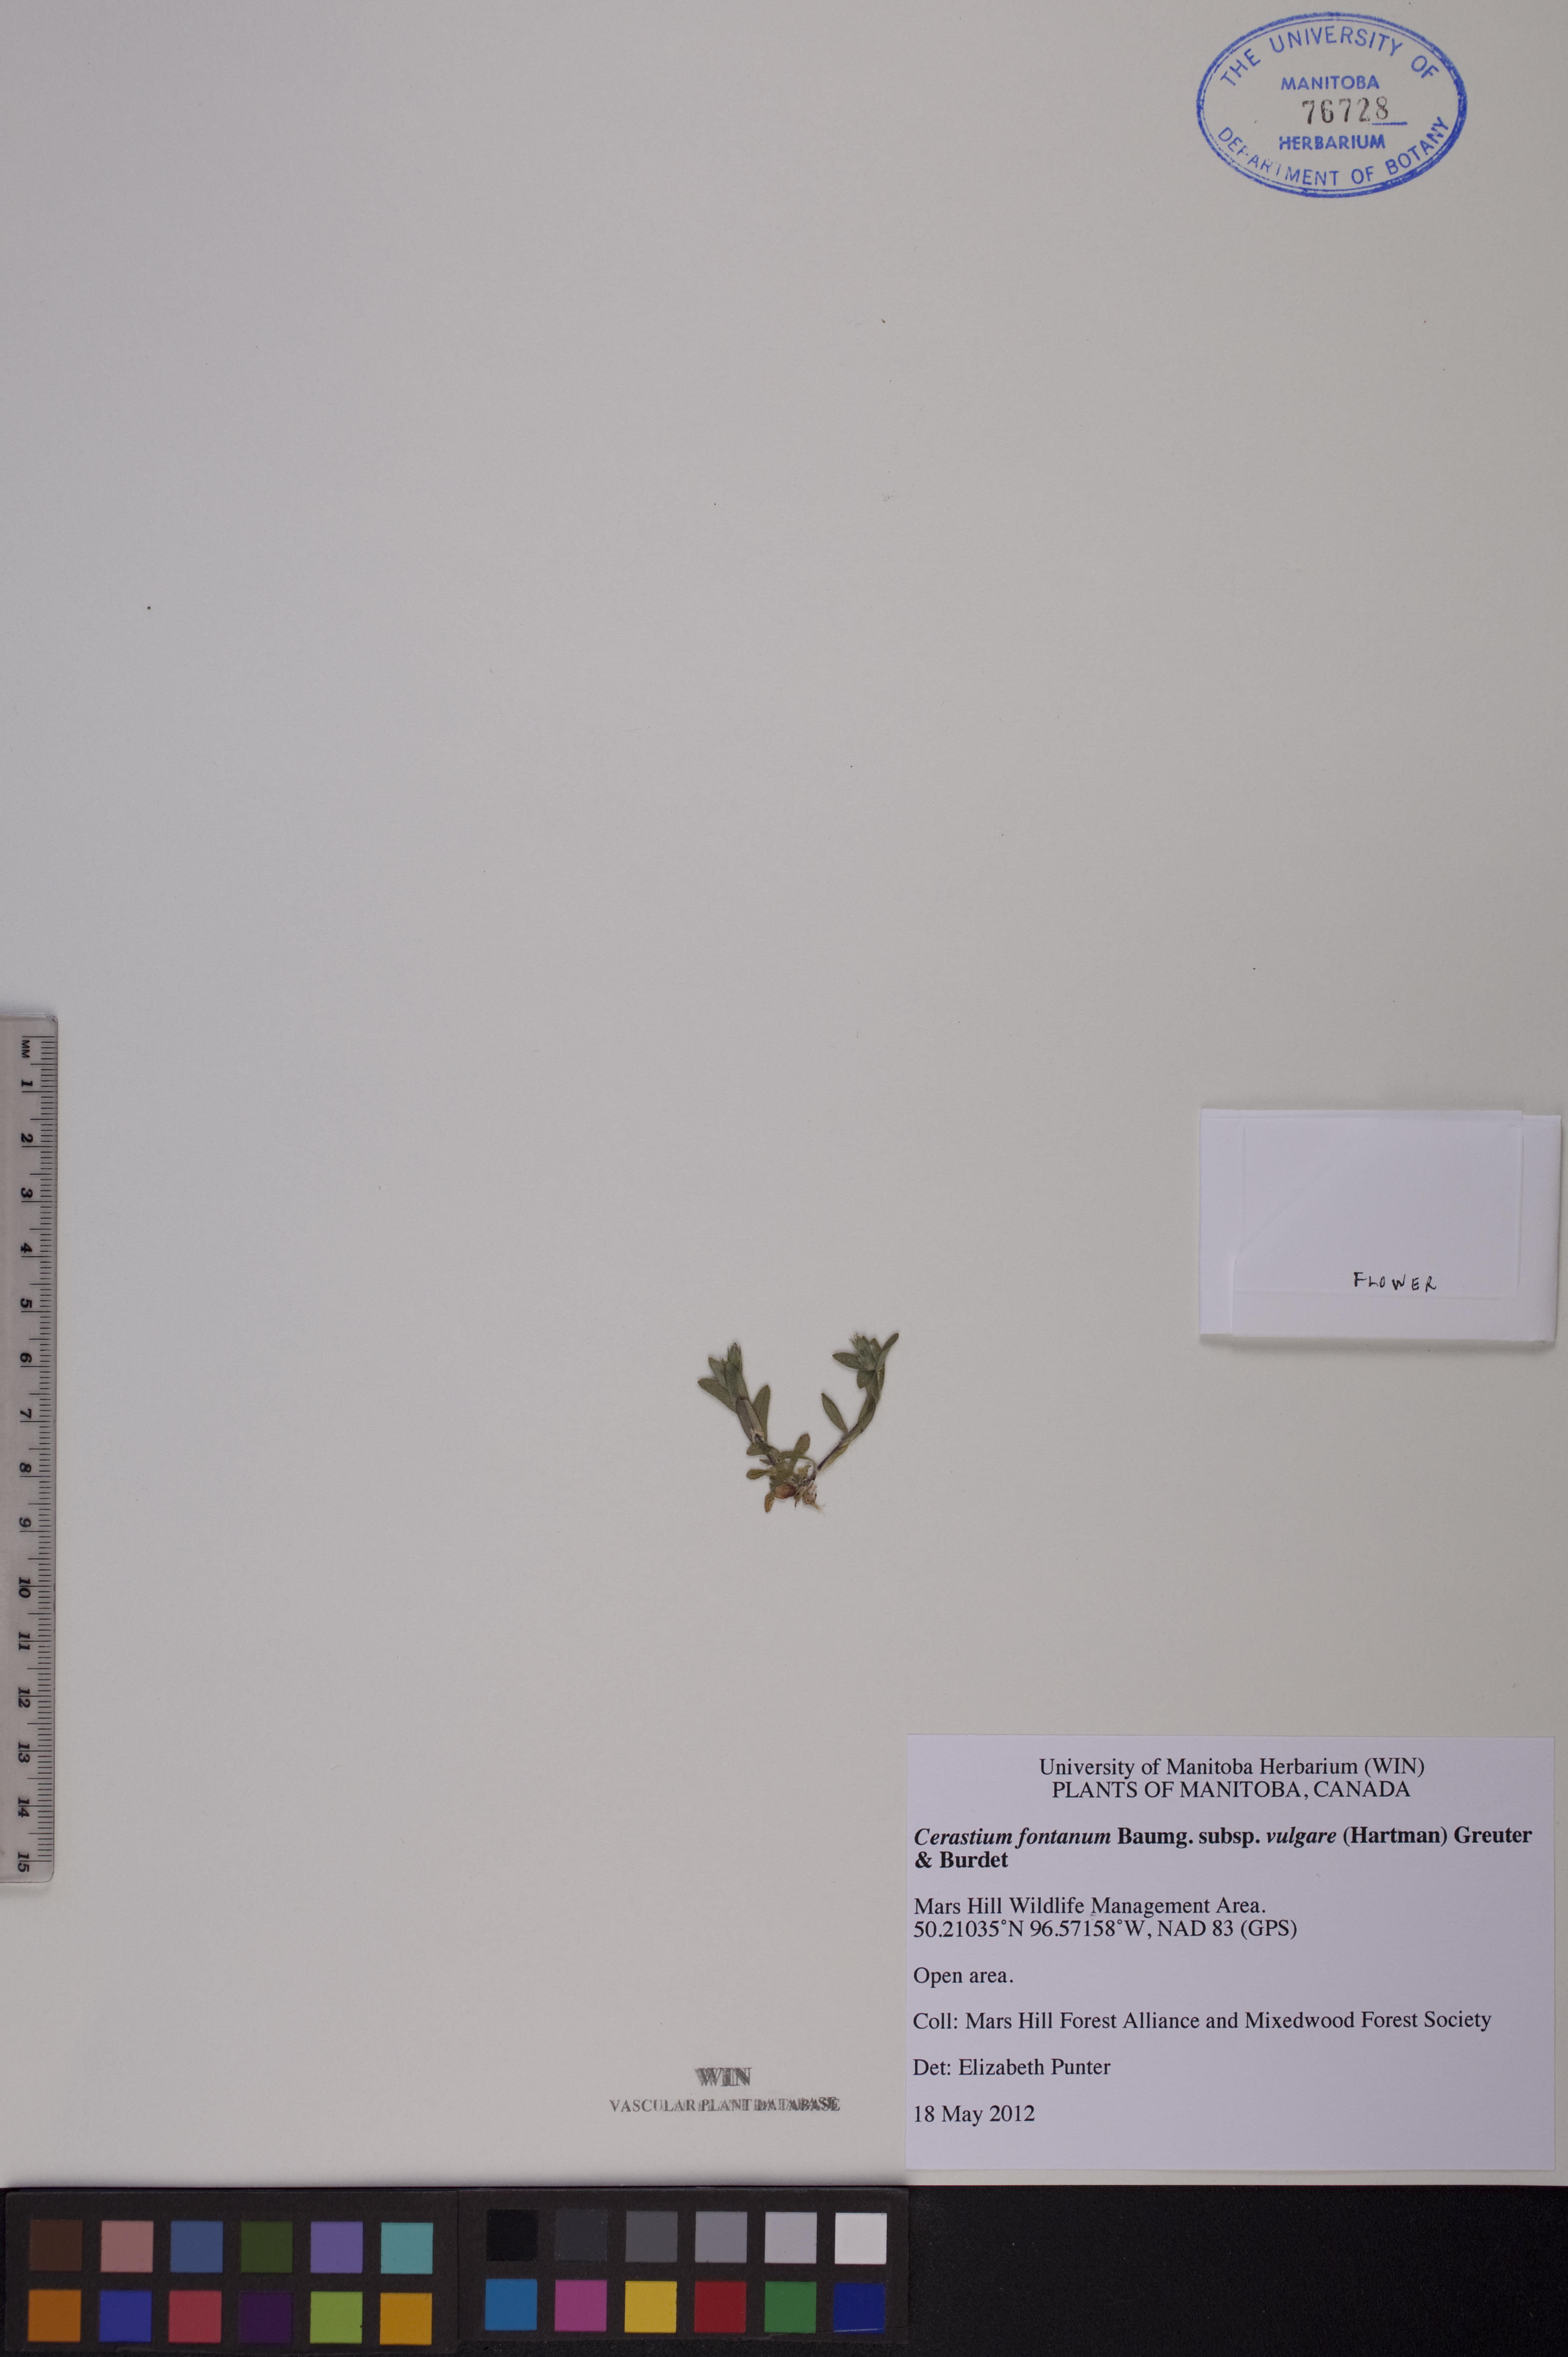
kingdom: Plantae
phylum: Tracheophyta
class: Magnoliopsida
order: Caryophyllales
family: Caryophyllaceae
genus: Cerastium
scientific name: Cerastium holosteoides
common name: Big chickweed
